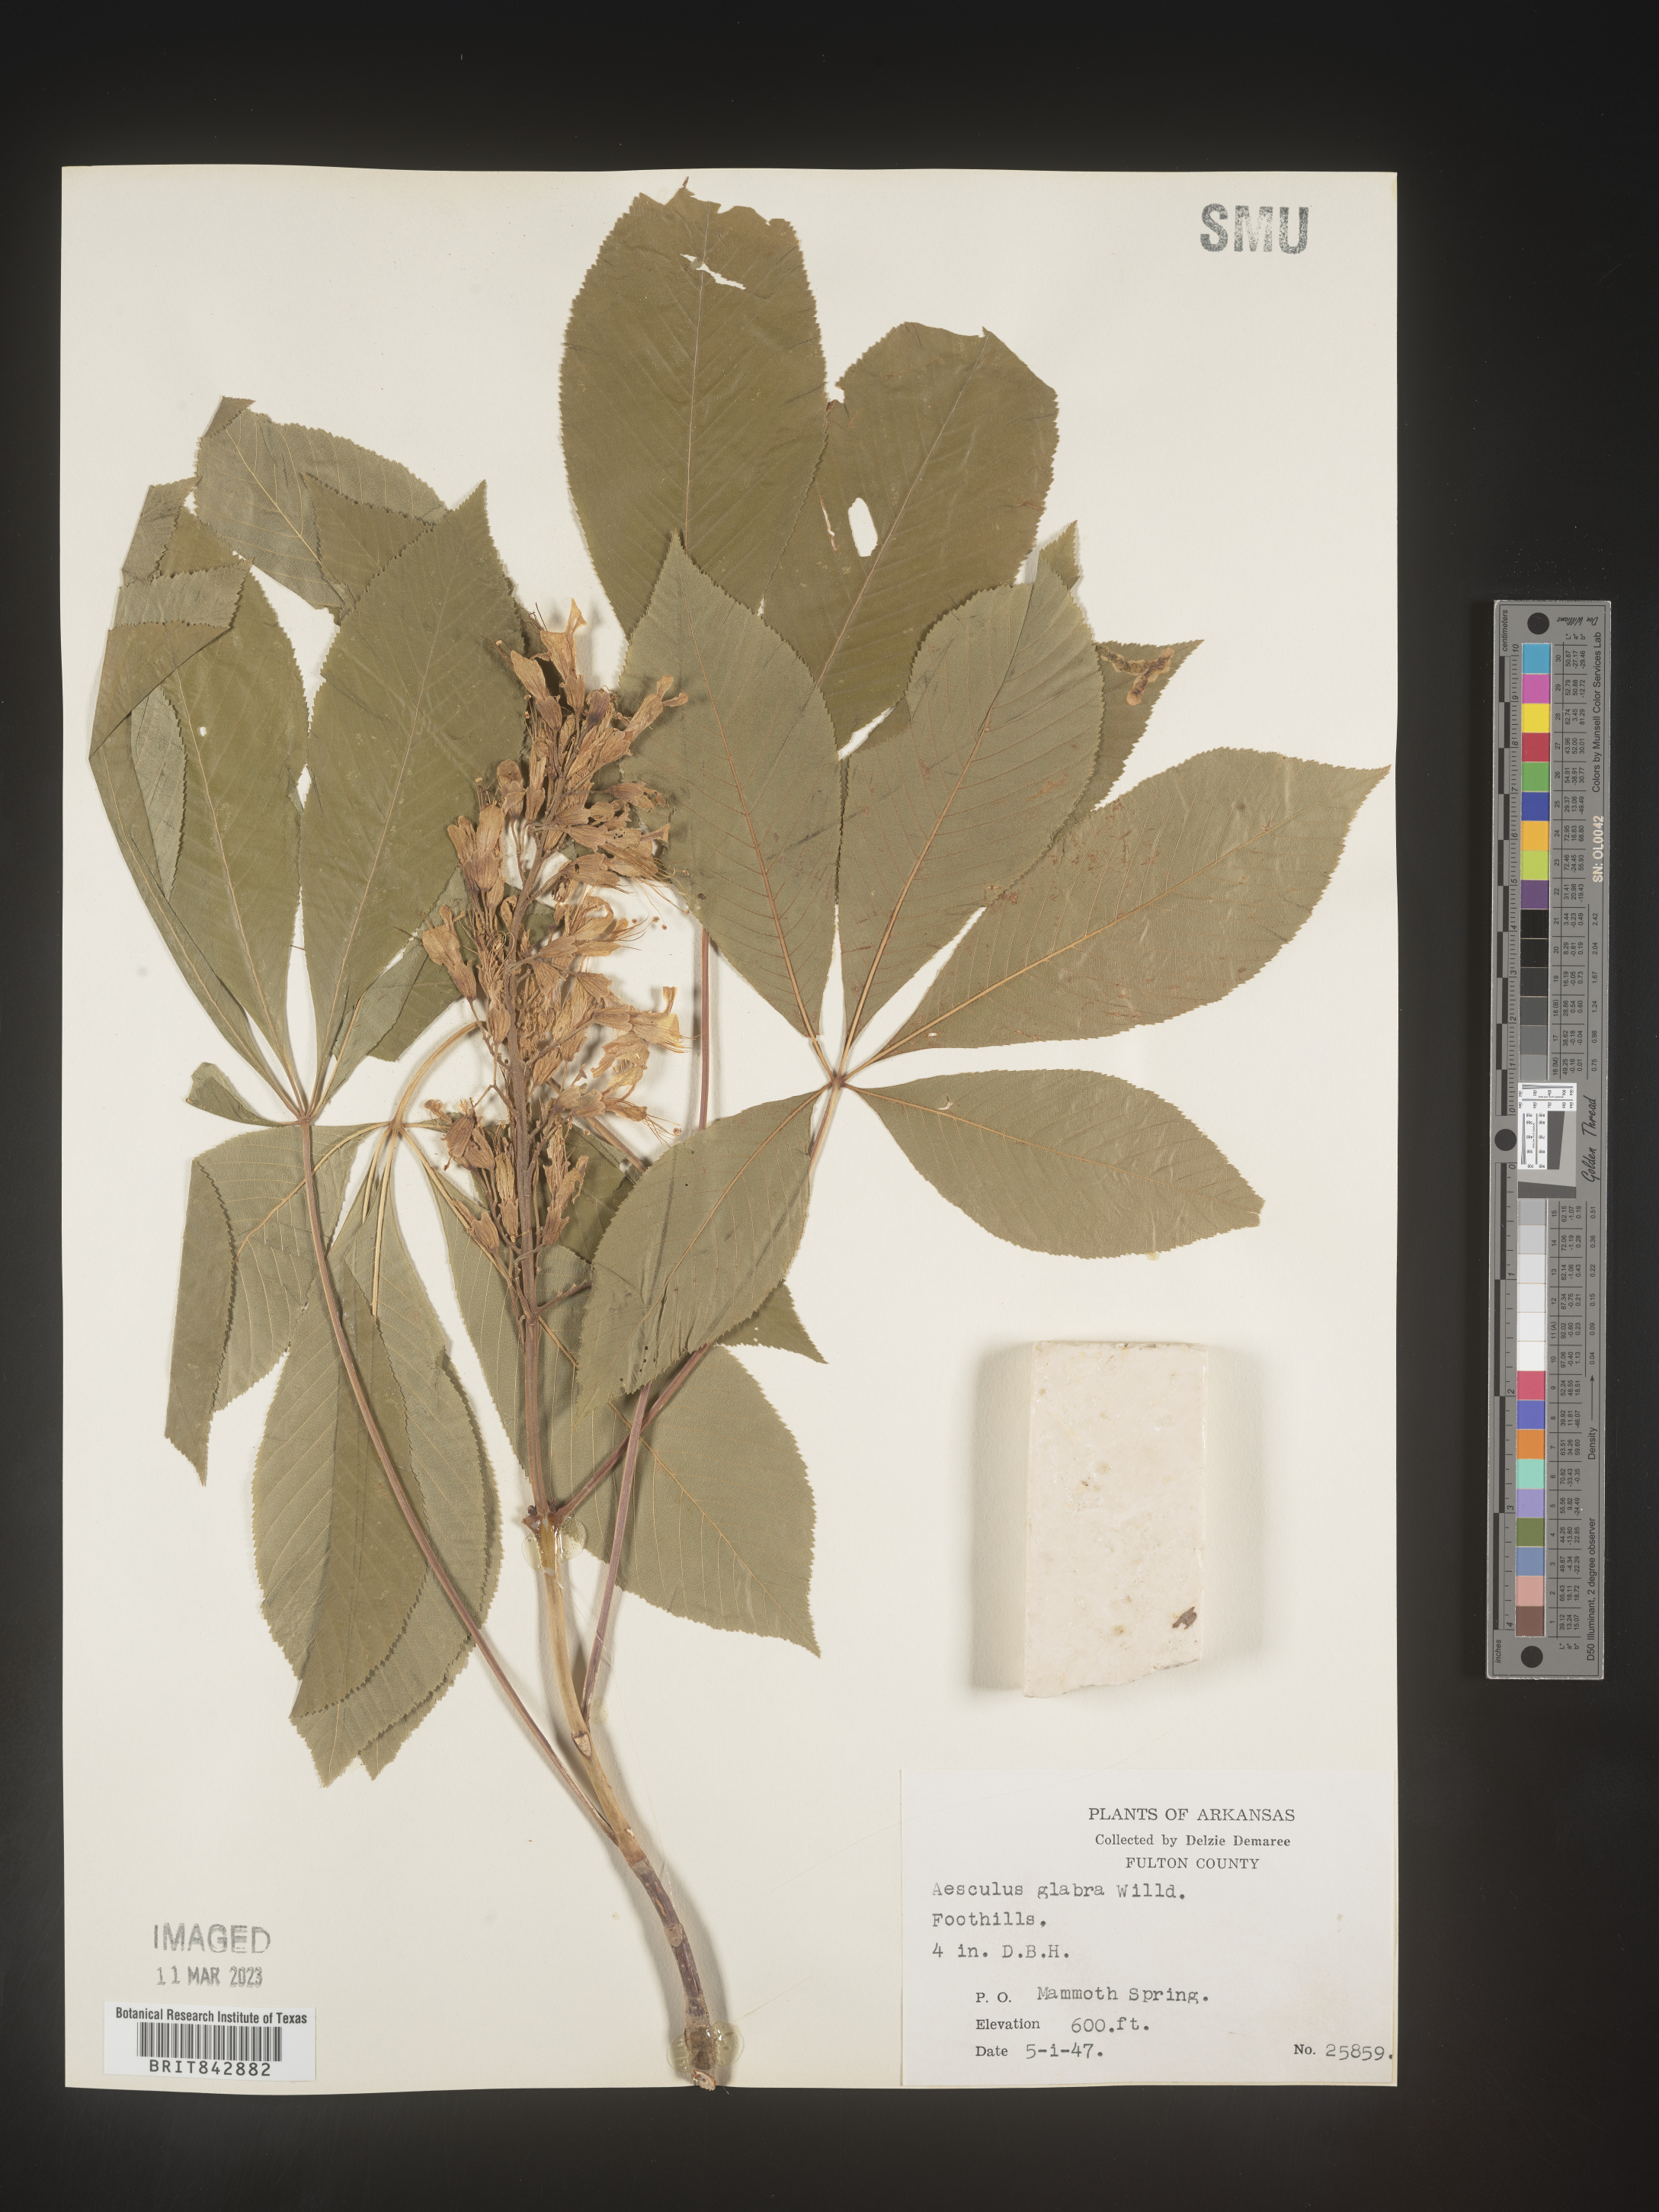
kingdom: Plantae
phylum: Tracheophyta
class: Magnoliopsida
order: Sapindales
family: Sapindaceae
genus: Aesculus
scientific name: Aesculus glabra
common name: Ohio buckeye
